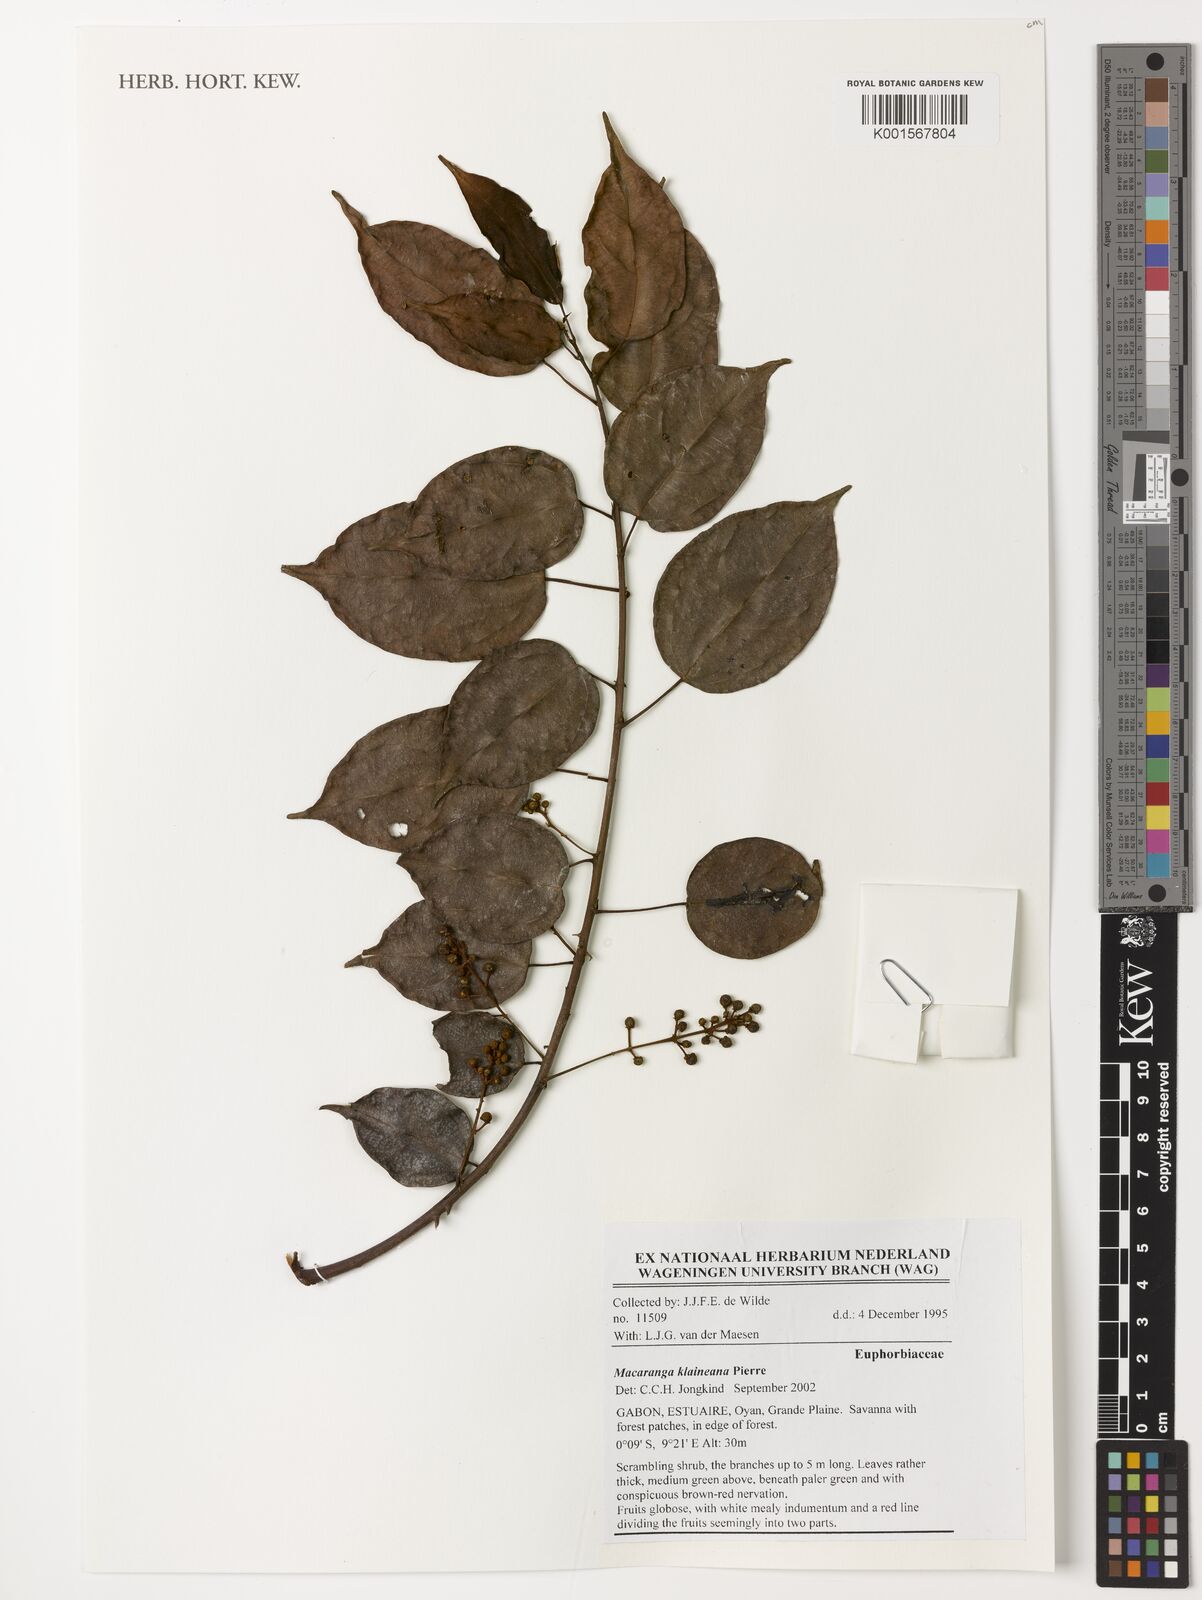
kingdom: Plantae
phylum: Tracheophyta
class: Magnoliopsida
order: Malpighiales
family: Euphorbiaceae
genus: Macaranga
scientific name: Macaranga klaineana
